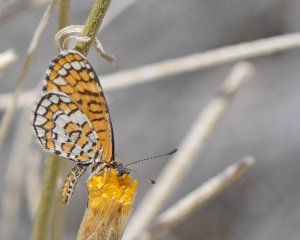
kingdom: Animalia
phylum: Arthropoda
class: Insecta
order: Lepidoptera
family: Nymphalidae
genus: Dymasia
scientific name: Dymasia dymas
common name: Tiny Checkerspot
